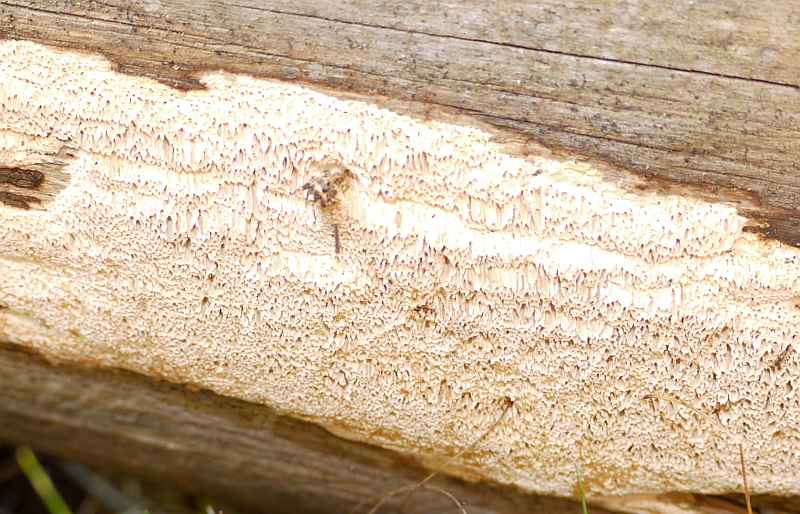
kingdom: Fungi
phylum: Basidiomycota
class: Agaricomycetes
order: Polyporales
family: Fomitopsidaceae
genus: Antrodia
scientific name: Antrodia sinuosa
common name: tømmer-sejporesvamp
